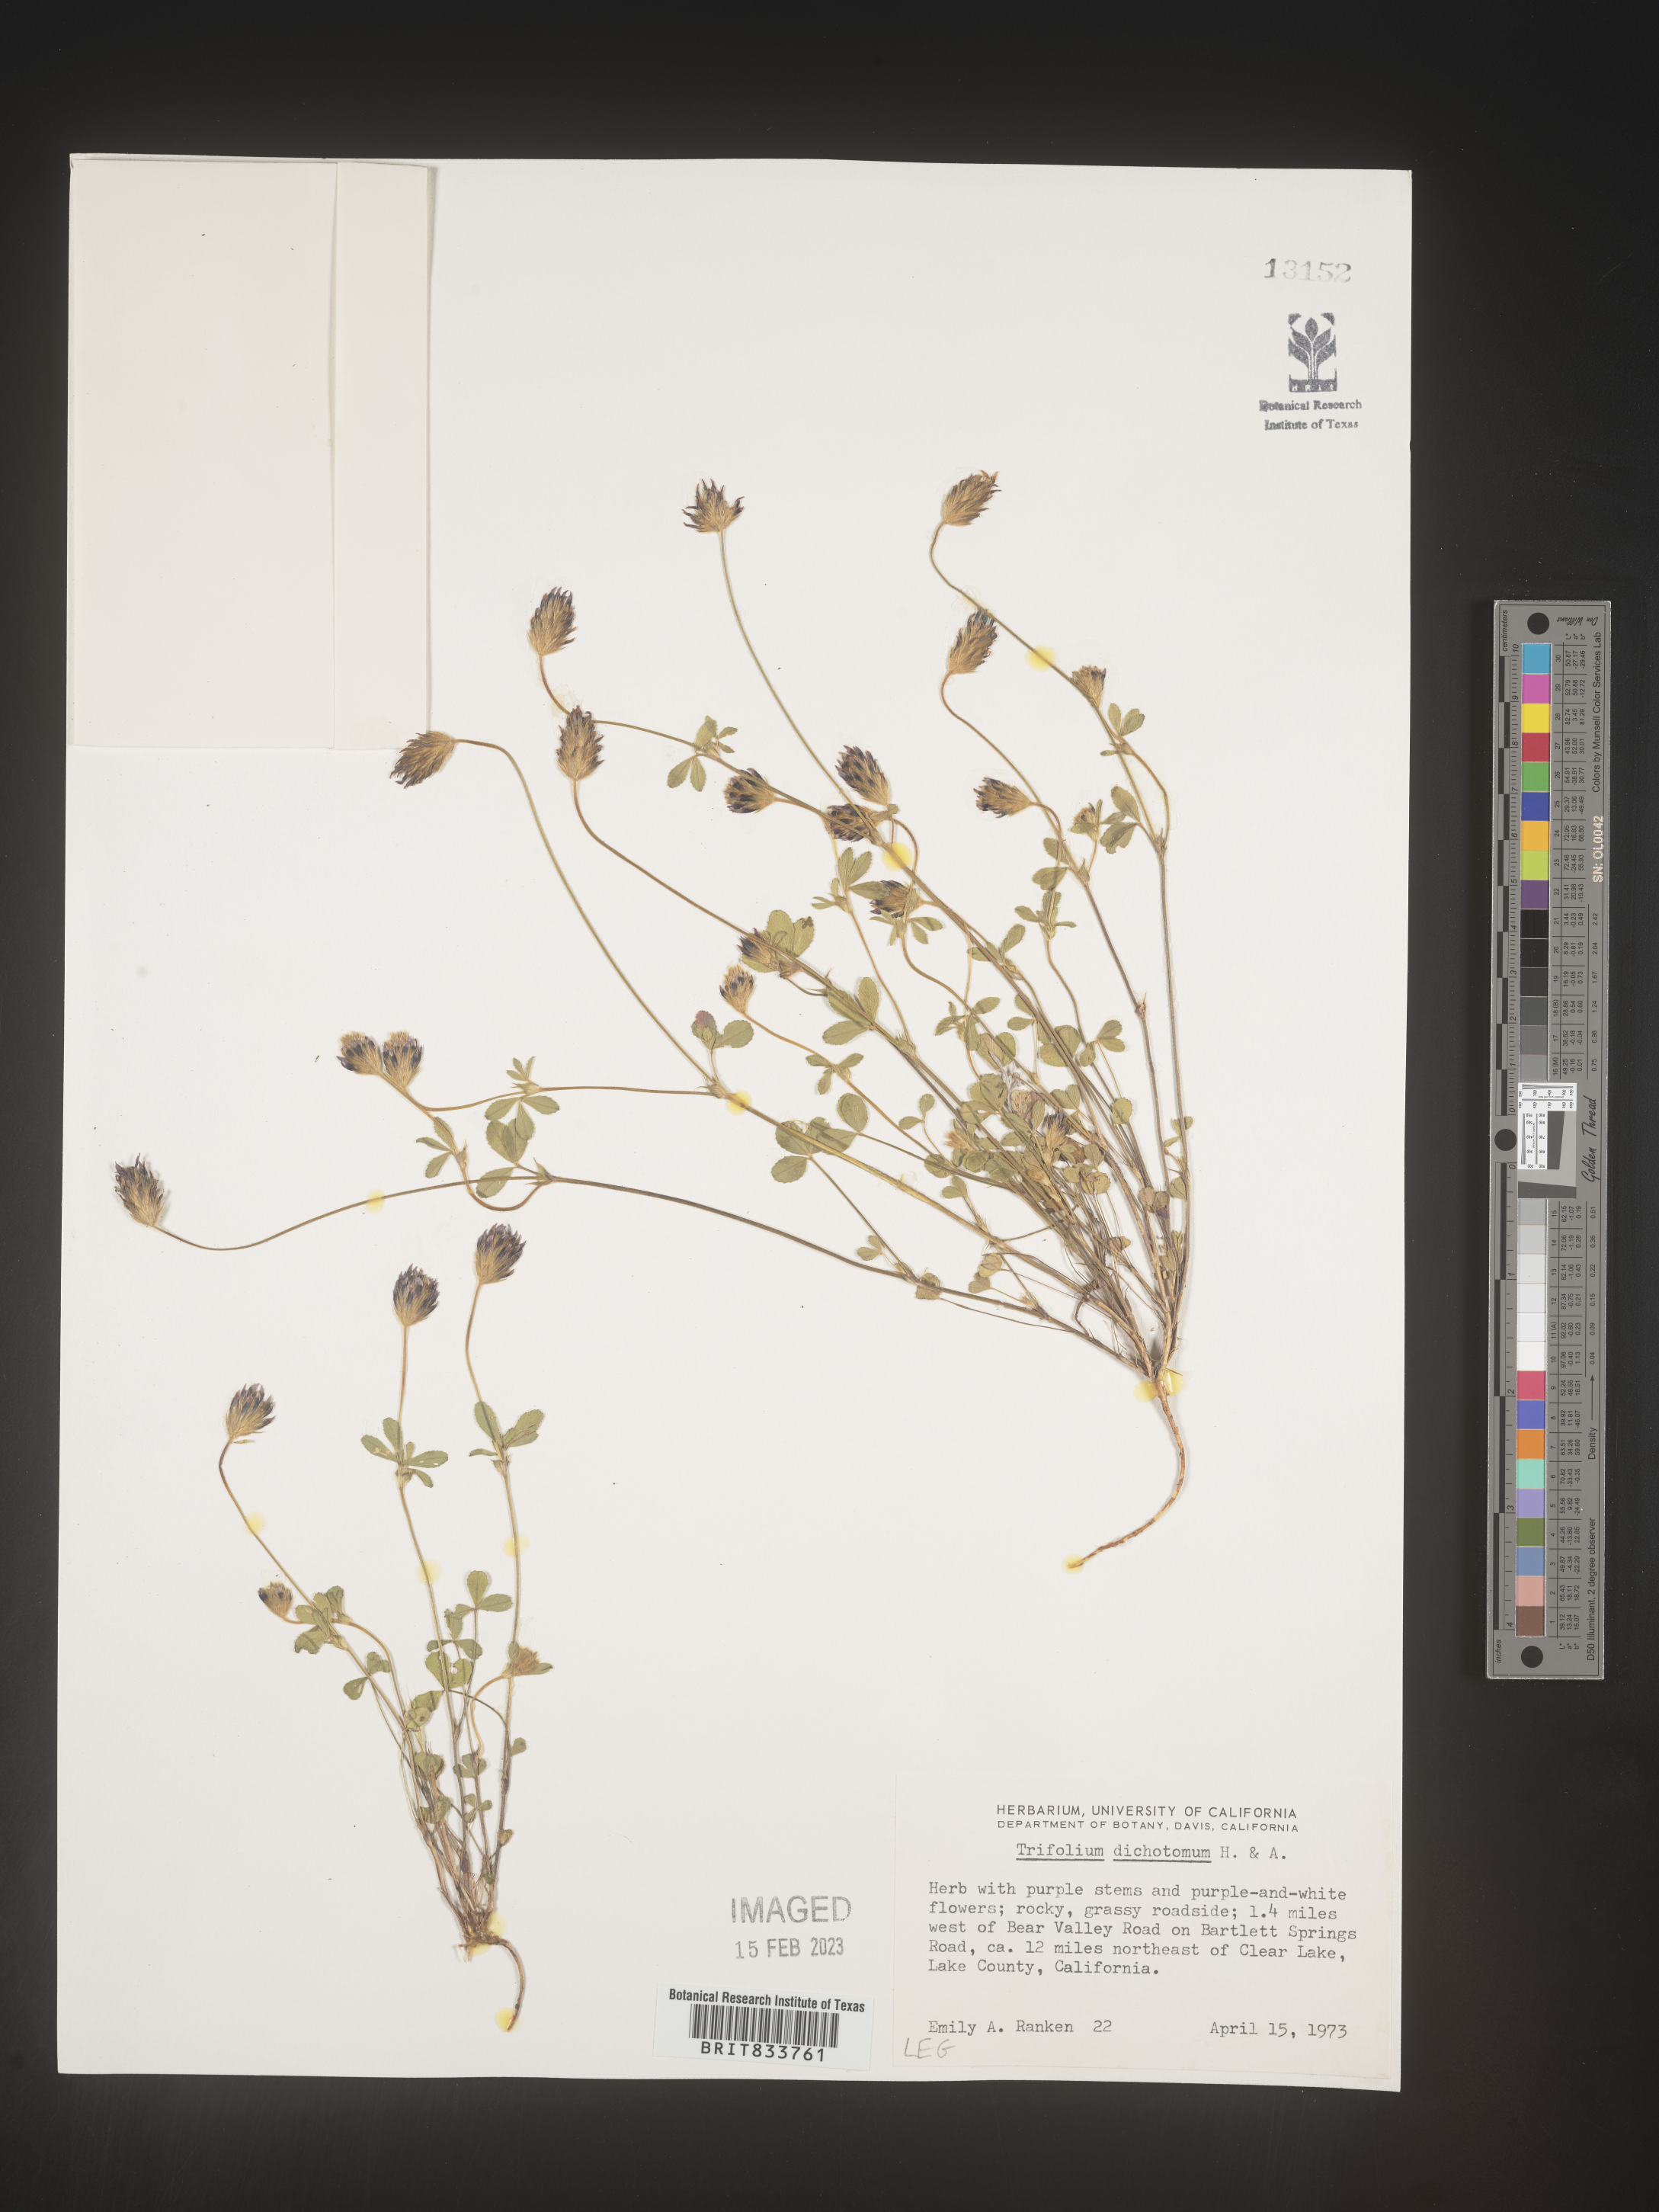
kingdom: Plantae
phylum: Tracheophyta
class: Magnoliopsida
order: Fabales
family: Fabaceae
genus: Trifolium
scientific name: Trifolium
